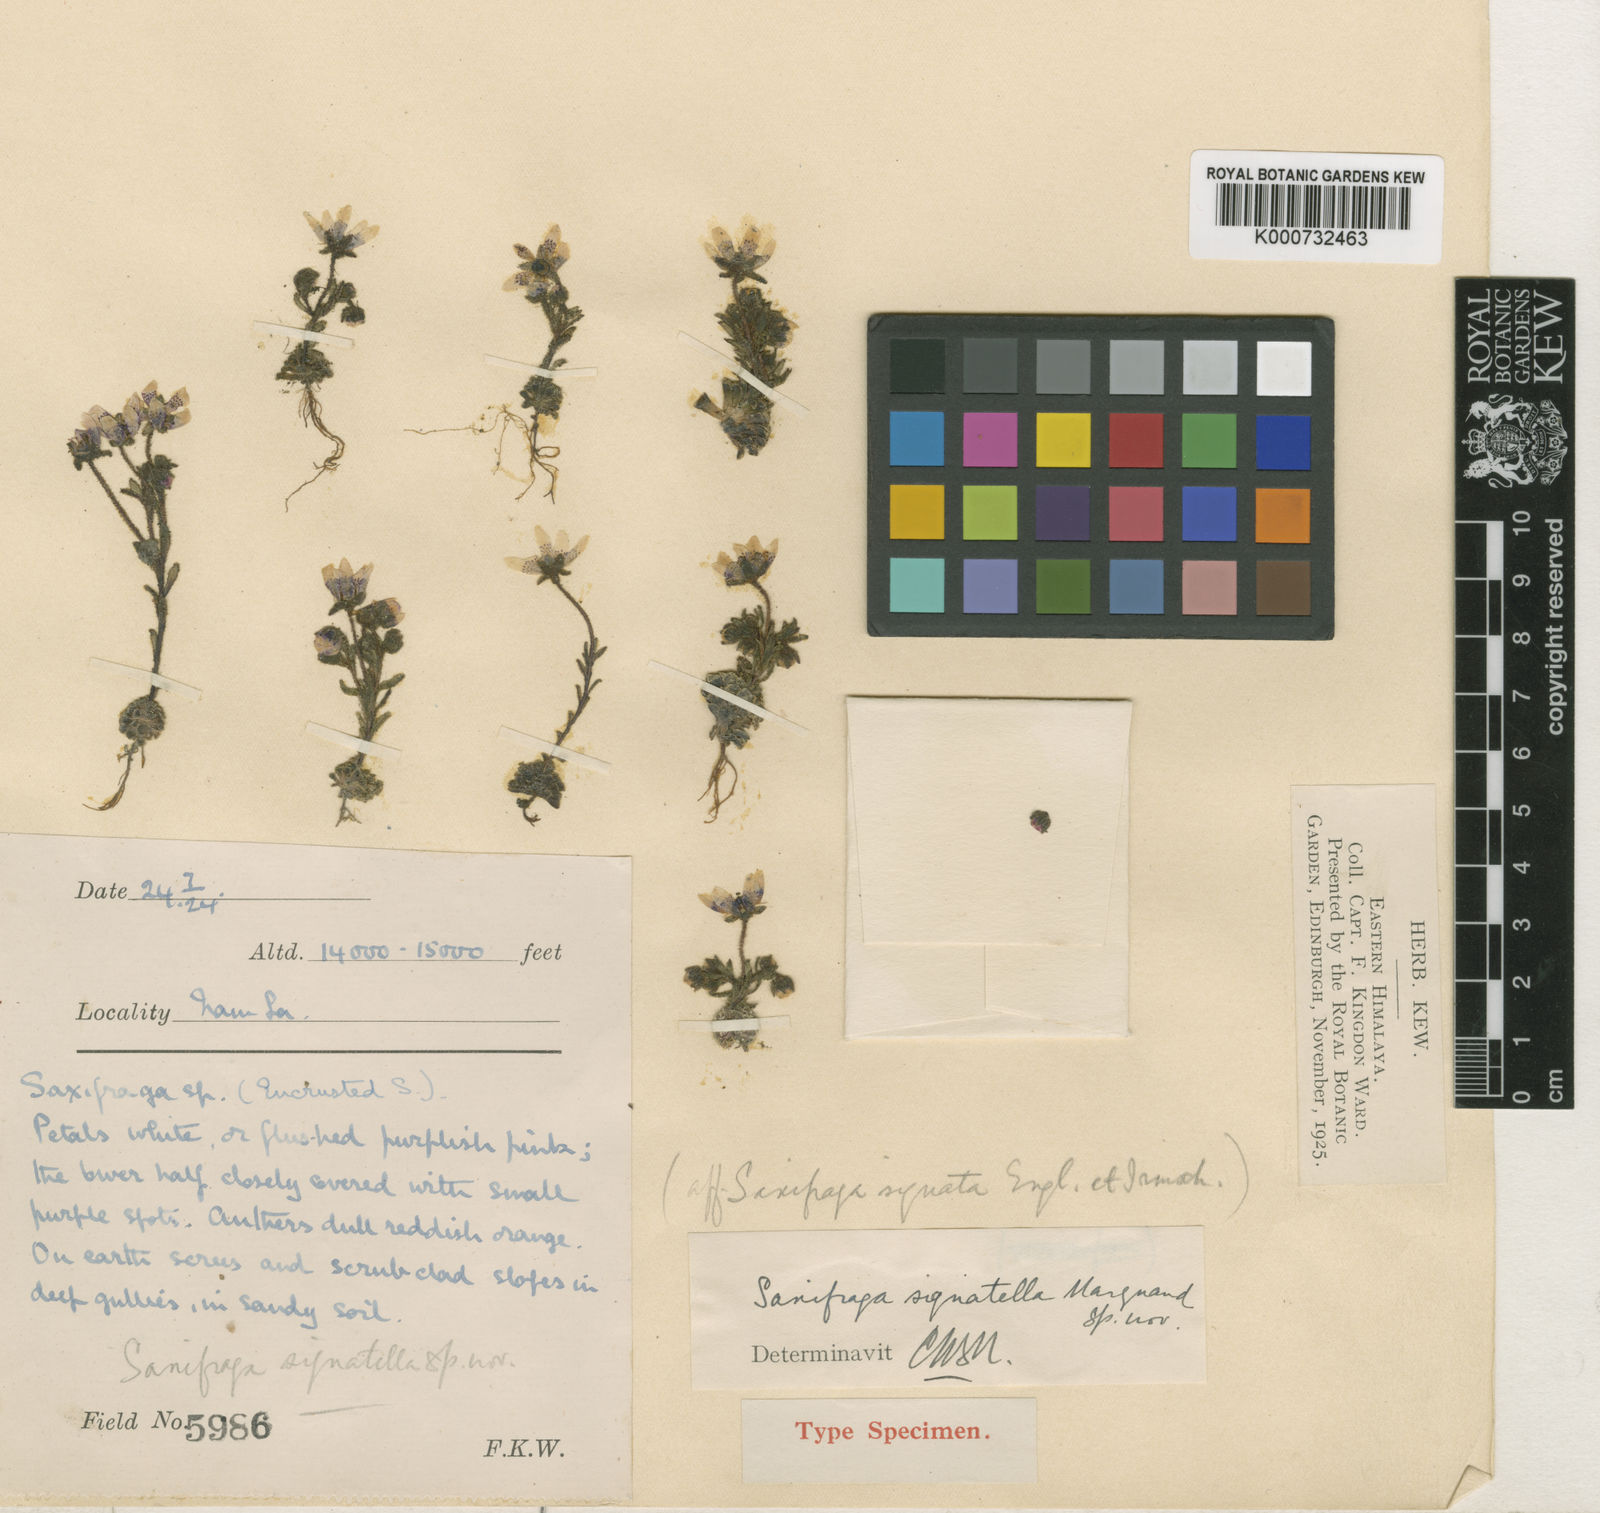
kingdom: Plantae
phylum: Tracheophyta
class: Magnoliopsida
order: Saxifragales
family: Saxifragaceae
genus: Saxifraga
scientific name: Saxifraga signatella
